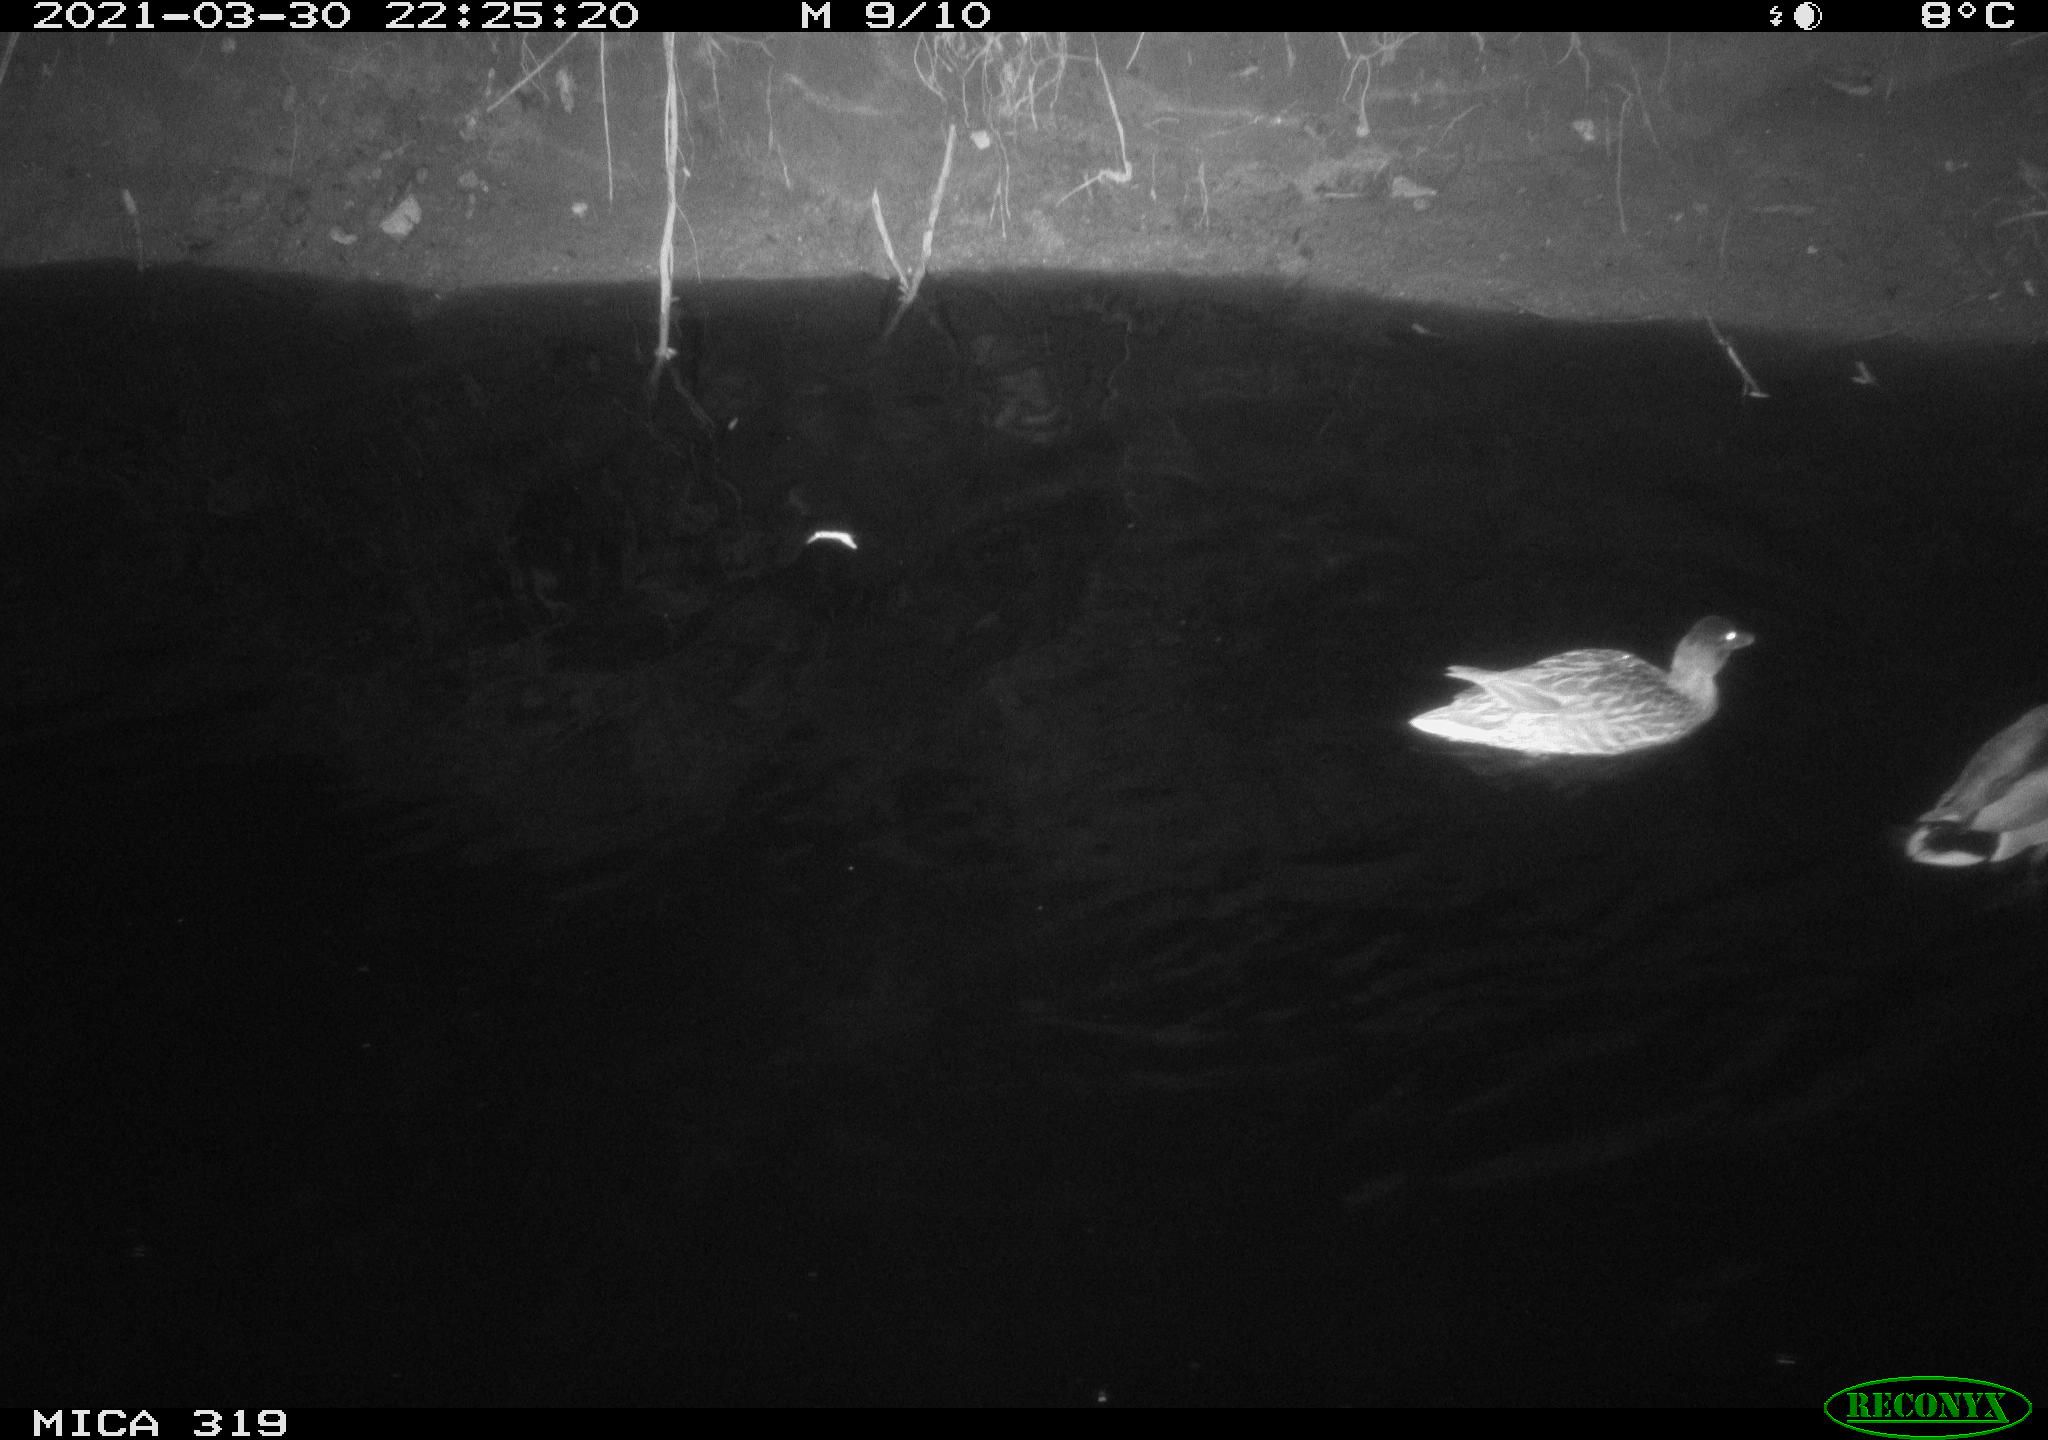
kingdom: Animalia
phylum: Chordata
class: Aves
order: Anseriformes
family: Anatidae
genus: Anas
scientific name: Anas platyrhynchos
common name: Mallard
